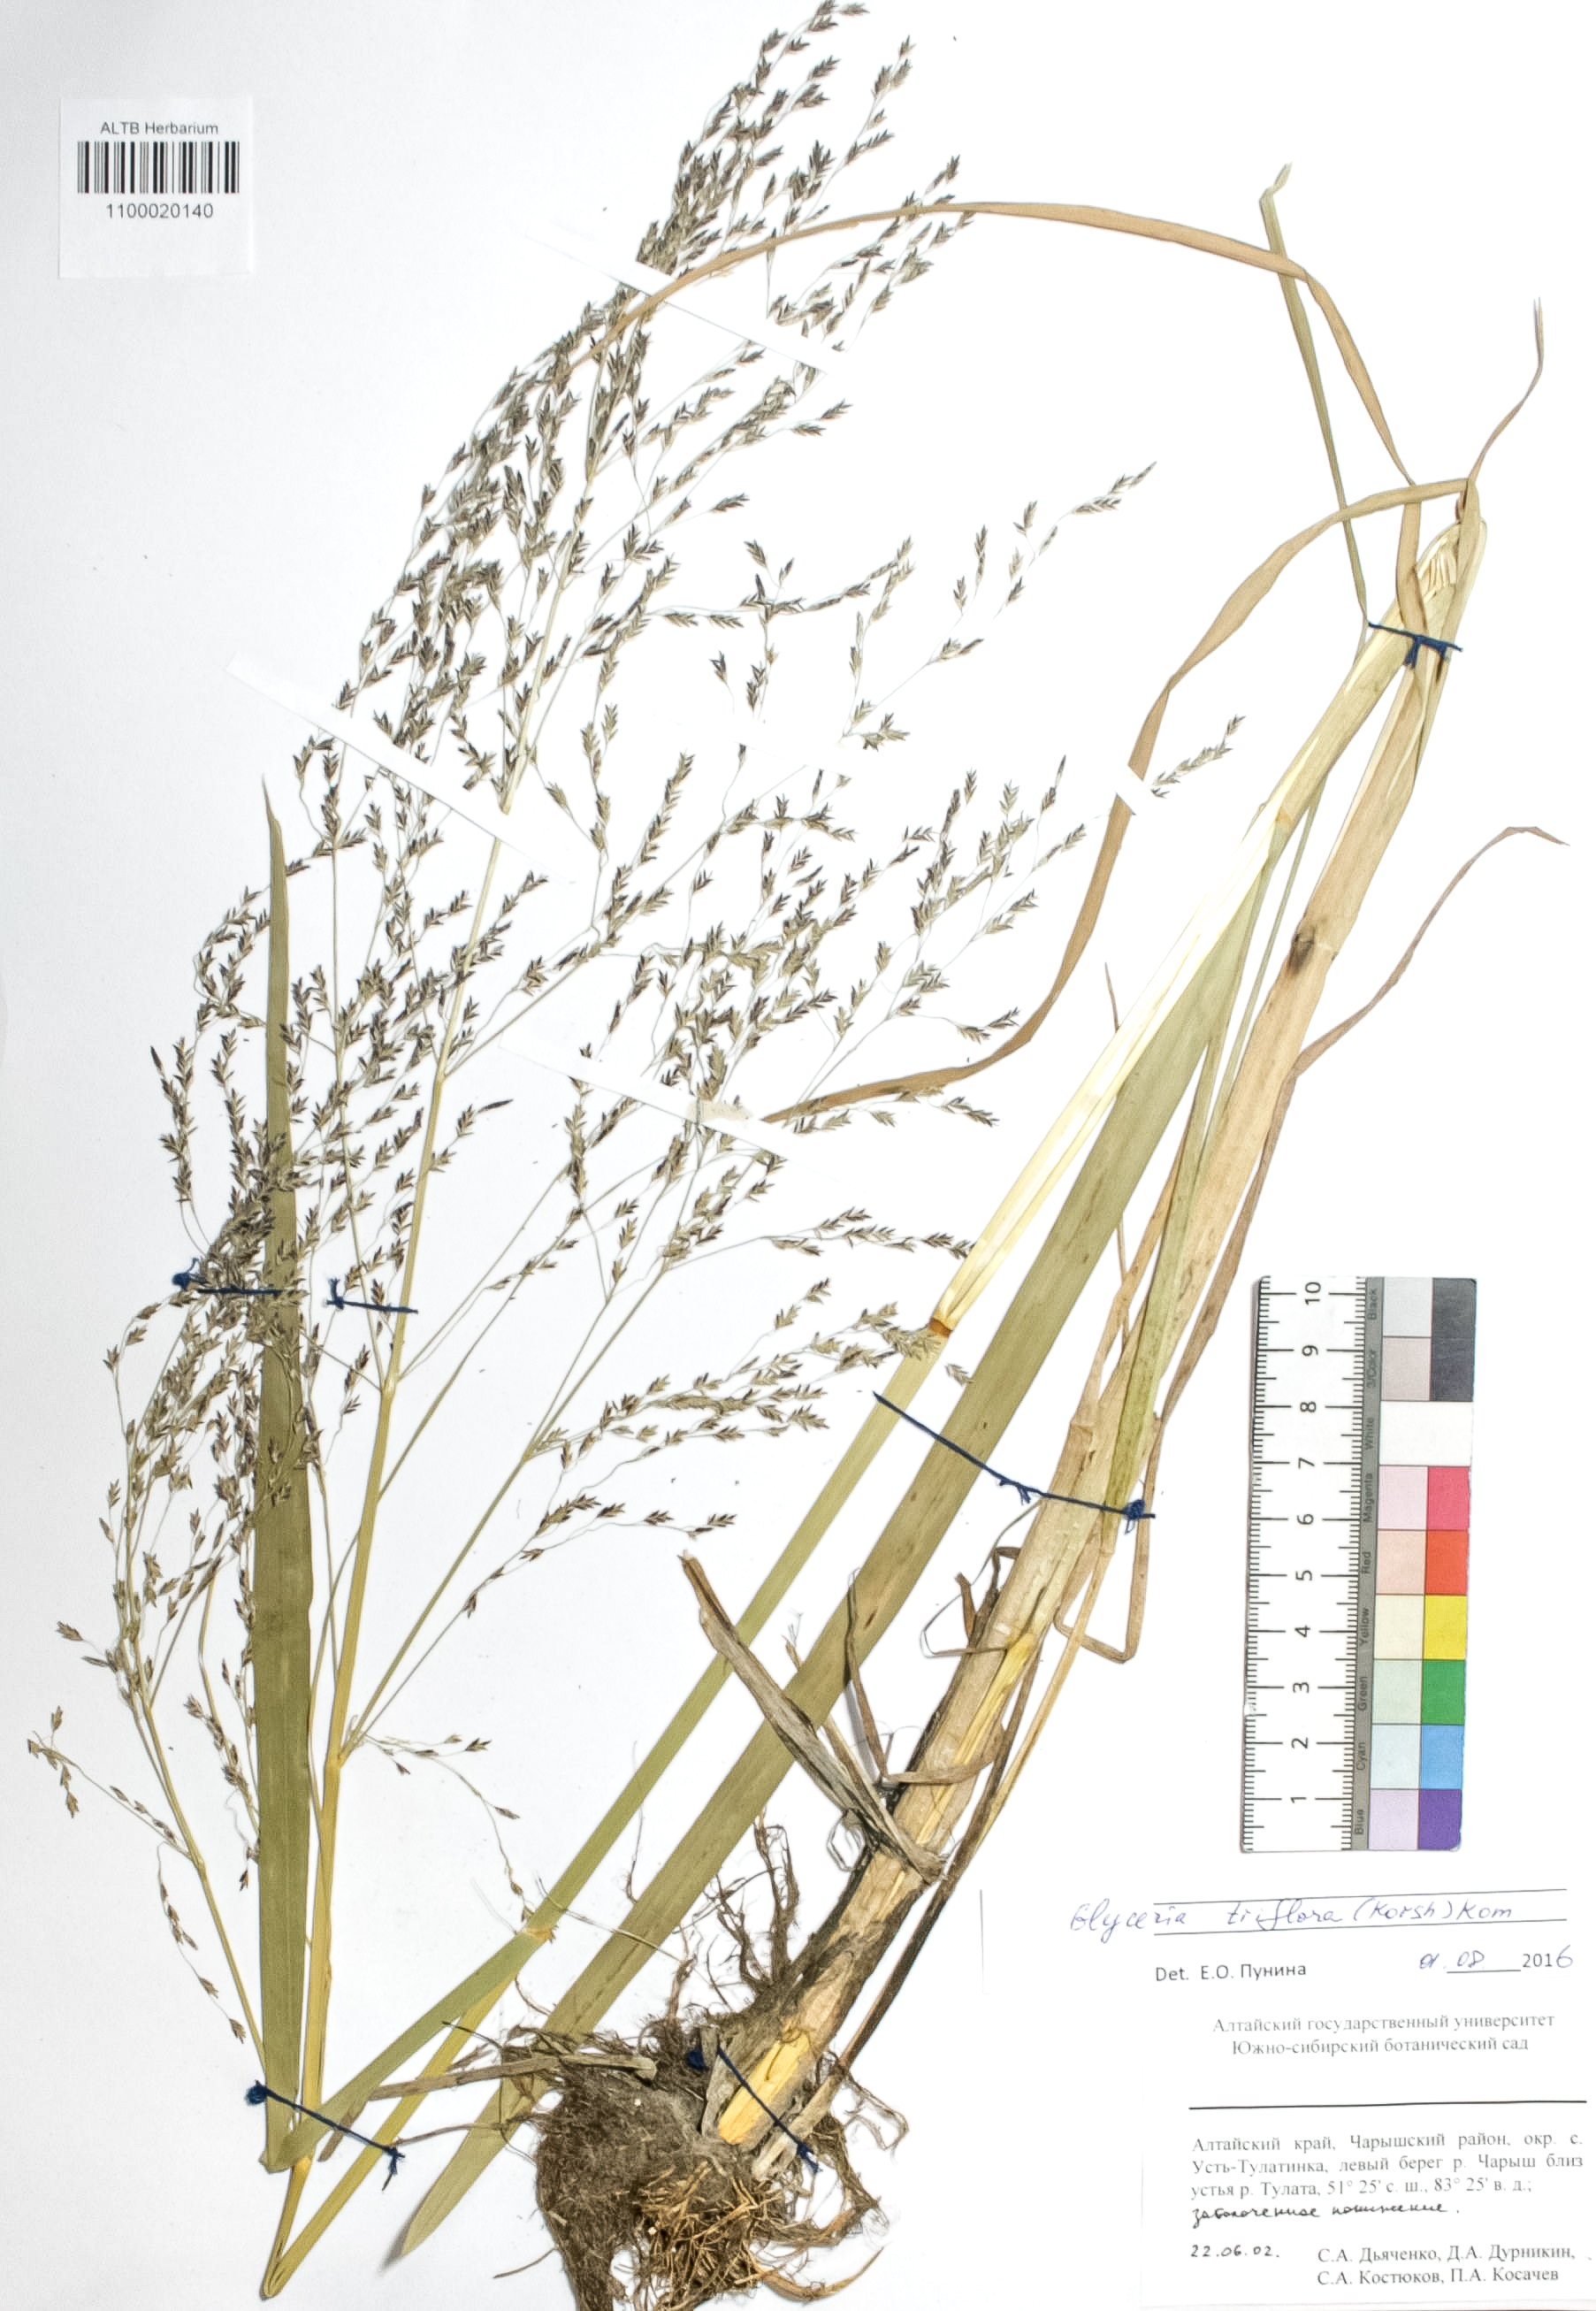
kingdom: Plantae
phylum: Tracheophyta
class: Liliopsida
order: Poales
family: Poaceae
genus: Glyceria
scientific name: Glyceria lithuanica
